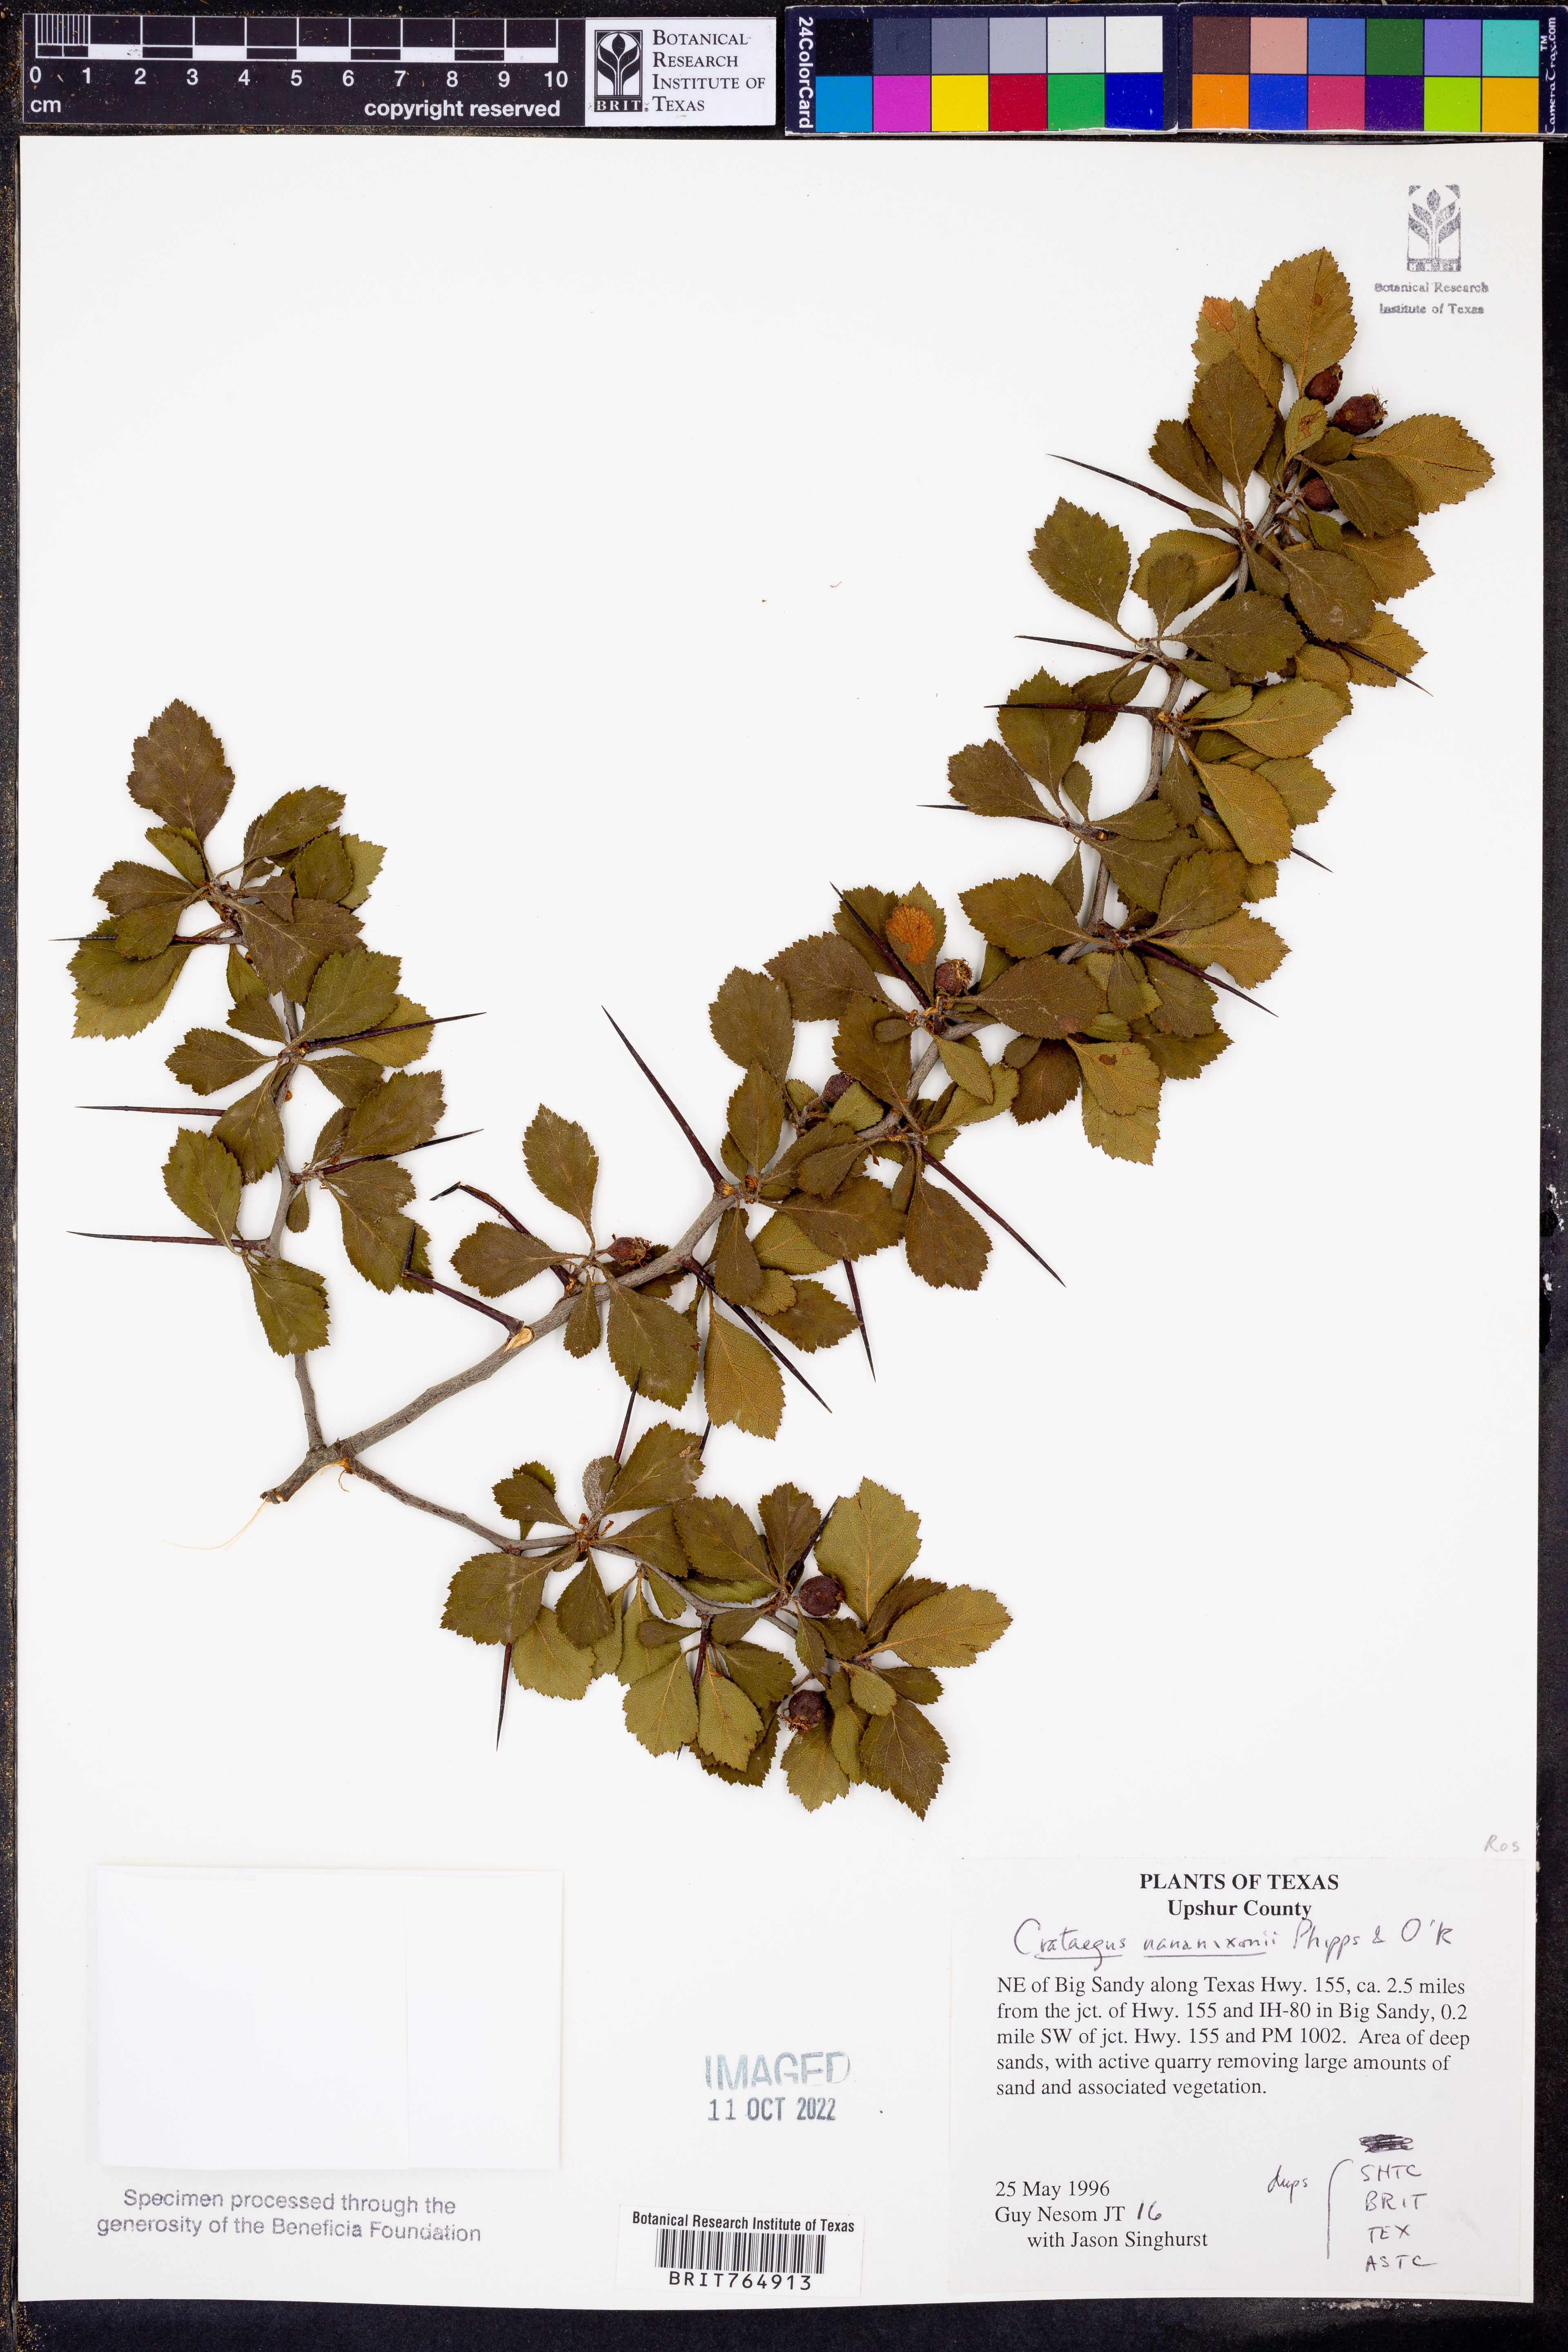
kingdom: Plantae
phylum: Tracheophyta
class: Magnoliopsida
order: Rosales
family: Rosaceae
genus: Crataegus
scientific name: Crataegus nananixonii
